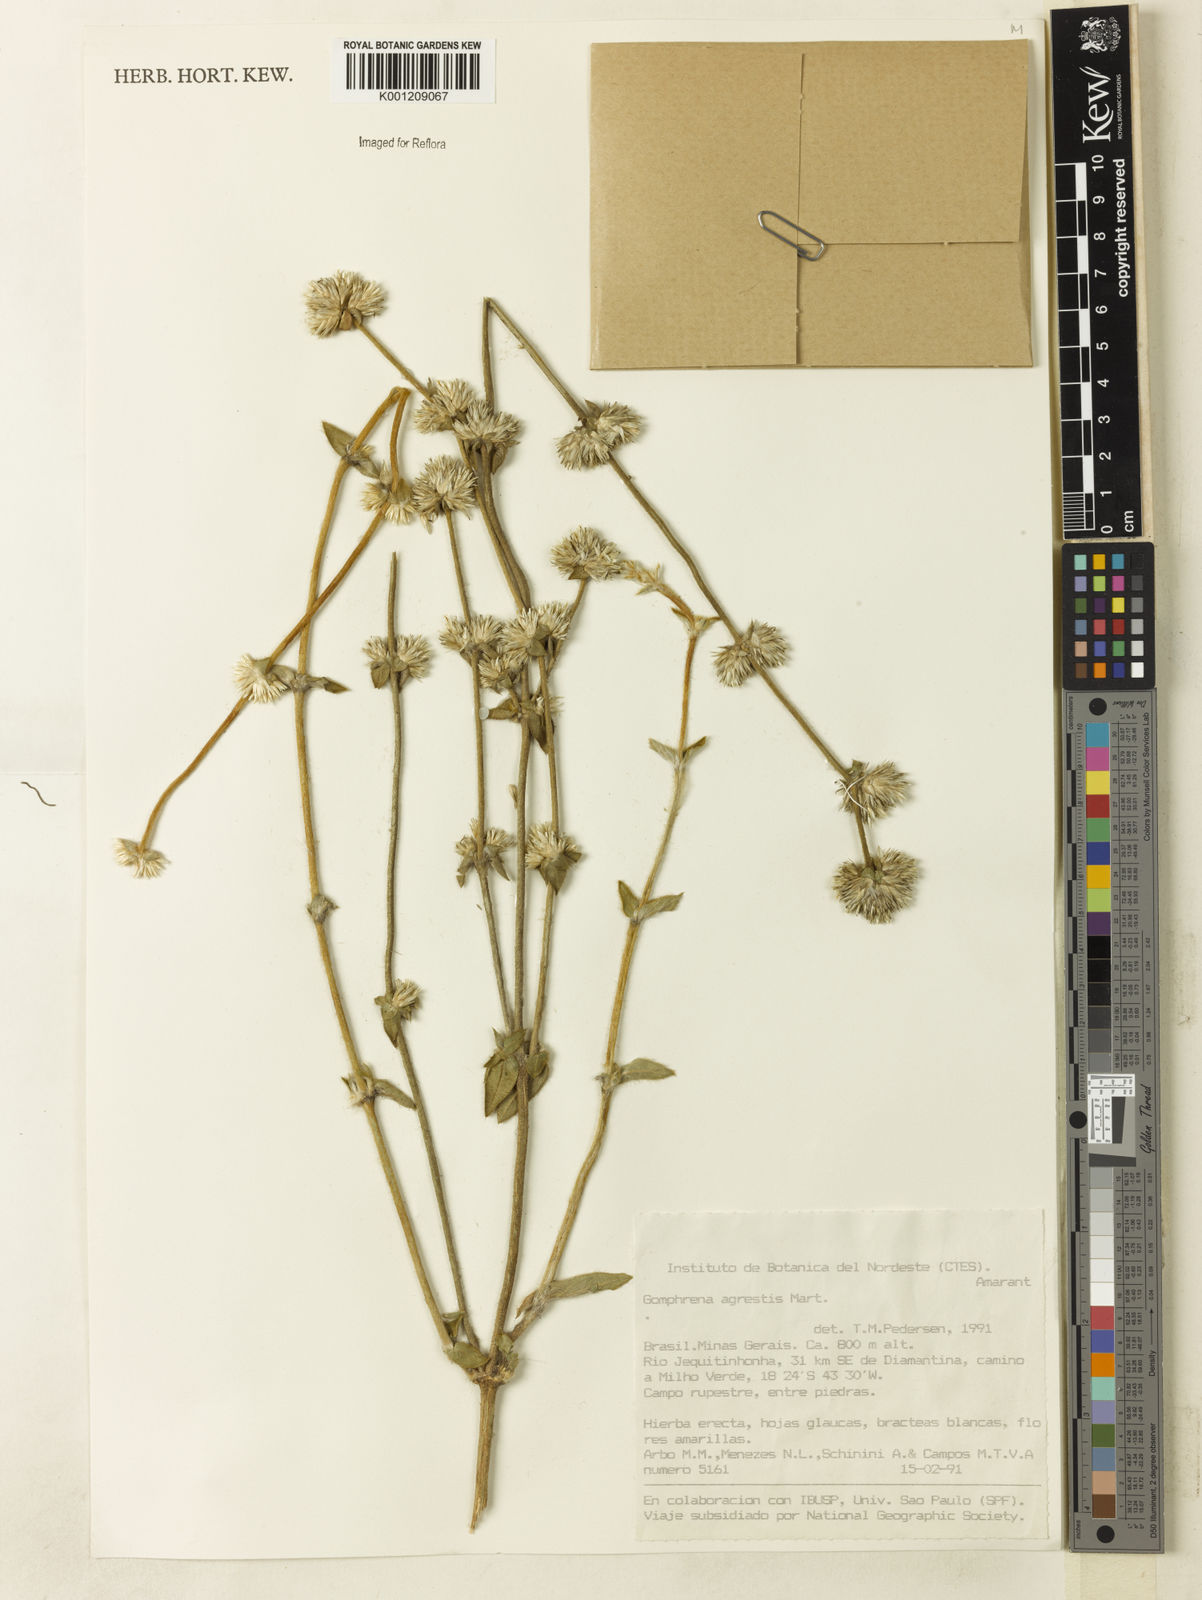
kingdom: Plantae
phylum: Tracheophyta
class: Magnoliopsida
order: Caryophyllales
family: Amaranthaceae
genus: Gomphrena
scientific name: Gomphrena agrestis
